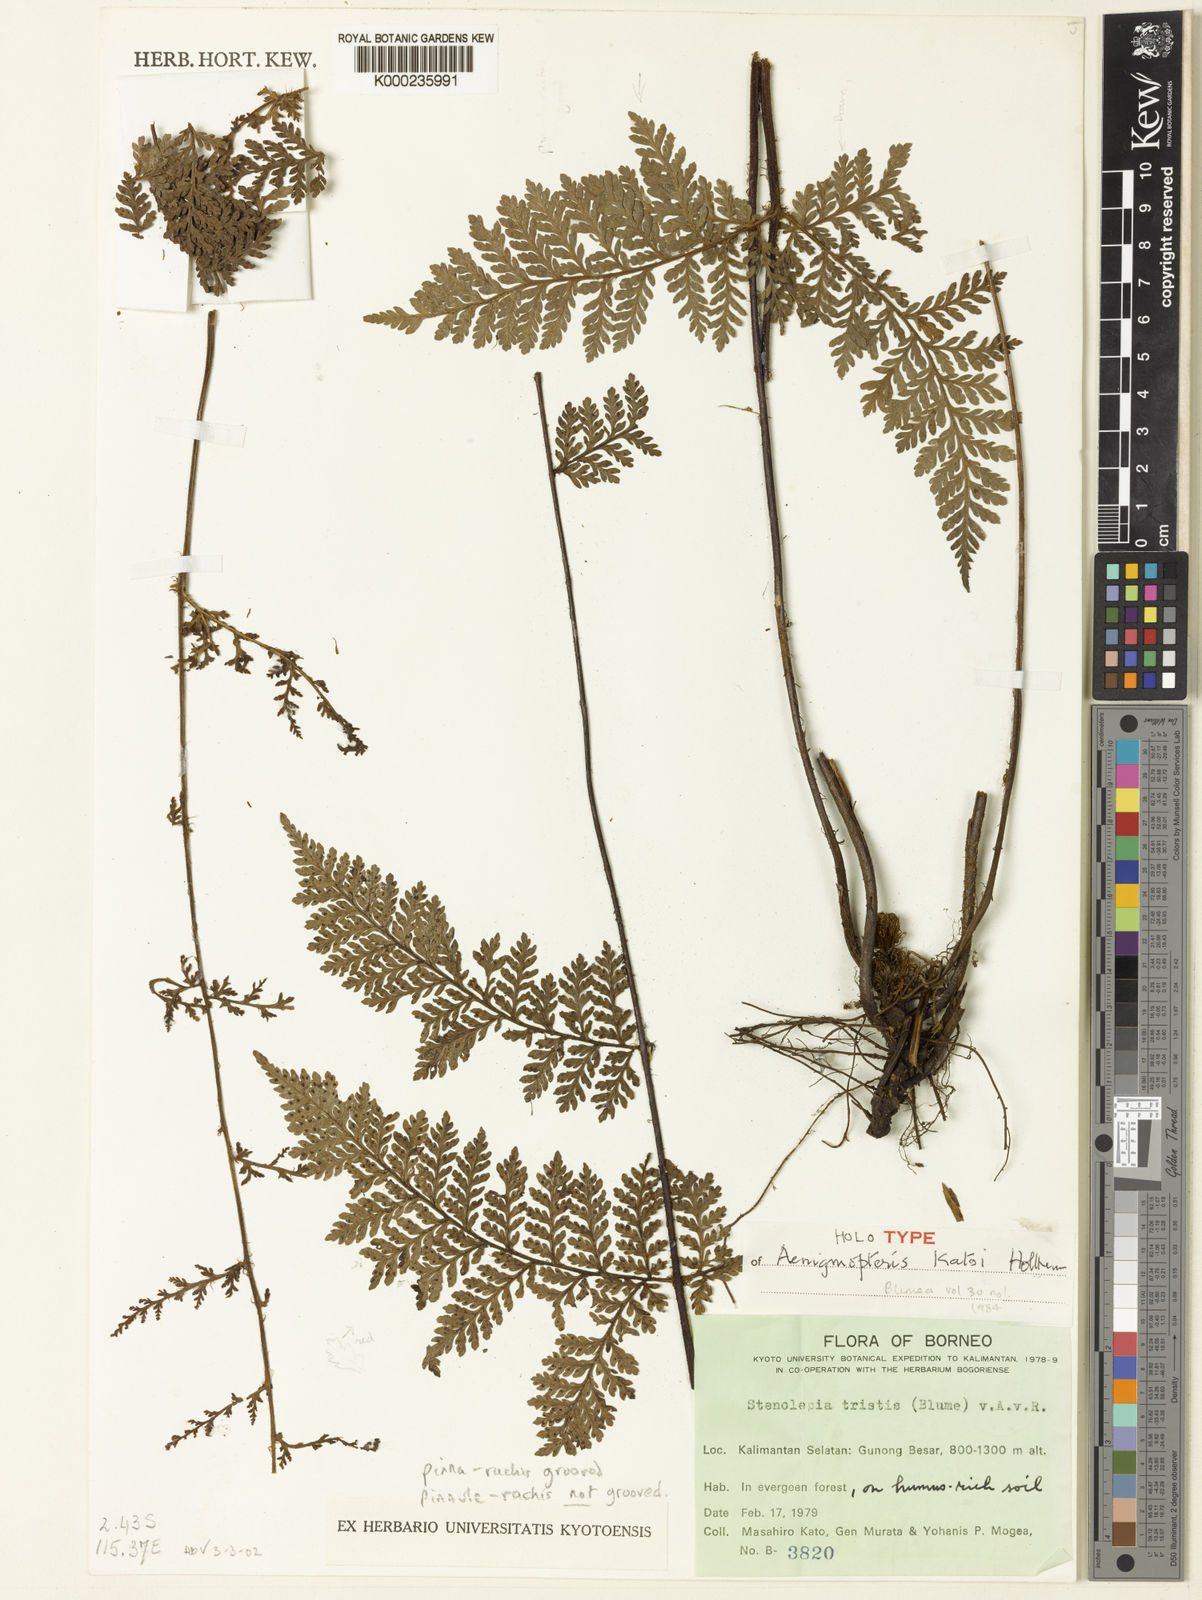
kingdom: Plantae
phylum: Tracheophyta
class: Polypodiopsida
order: Polypodiales
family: Tectariaceae
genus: Tectaria
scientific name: Tectaria katoi
